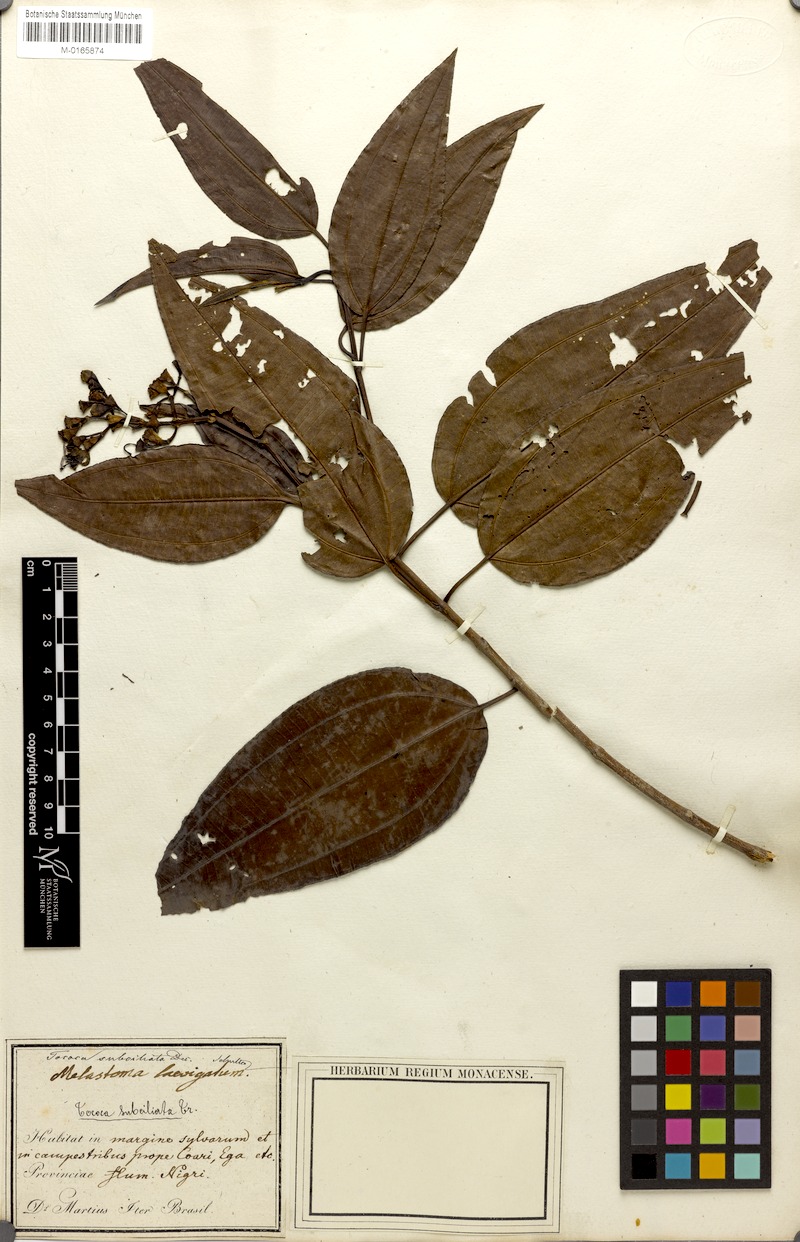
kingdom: Plantae
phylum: Tracheophyta
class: Magnoliopsida
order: Myrtales
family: Melastomataceae
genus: Miconia
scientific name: Miconia subciliata
